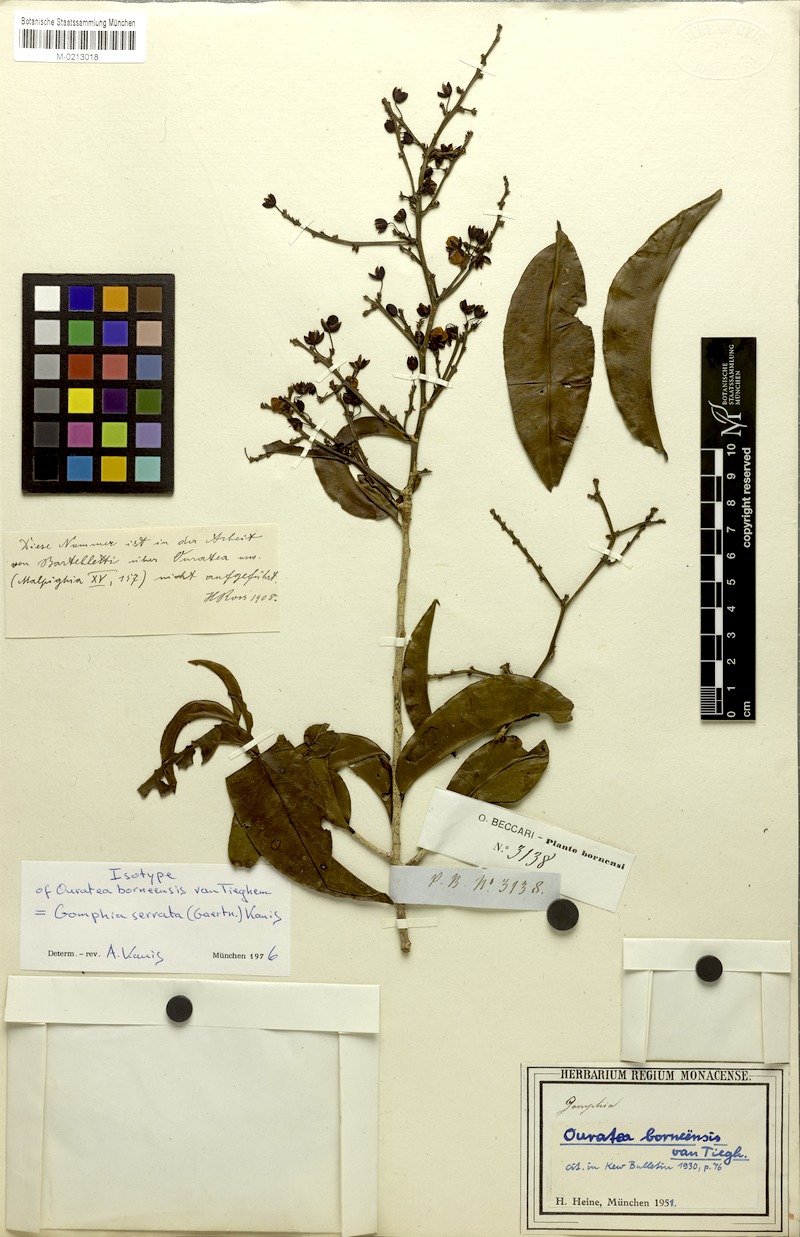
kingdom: Plantae
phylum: Tracheophyta
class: Magnoliopsida
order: Malpighiales
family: Ochnaceae
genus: Gomphia
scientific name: Gomphia serrata
